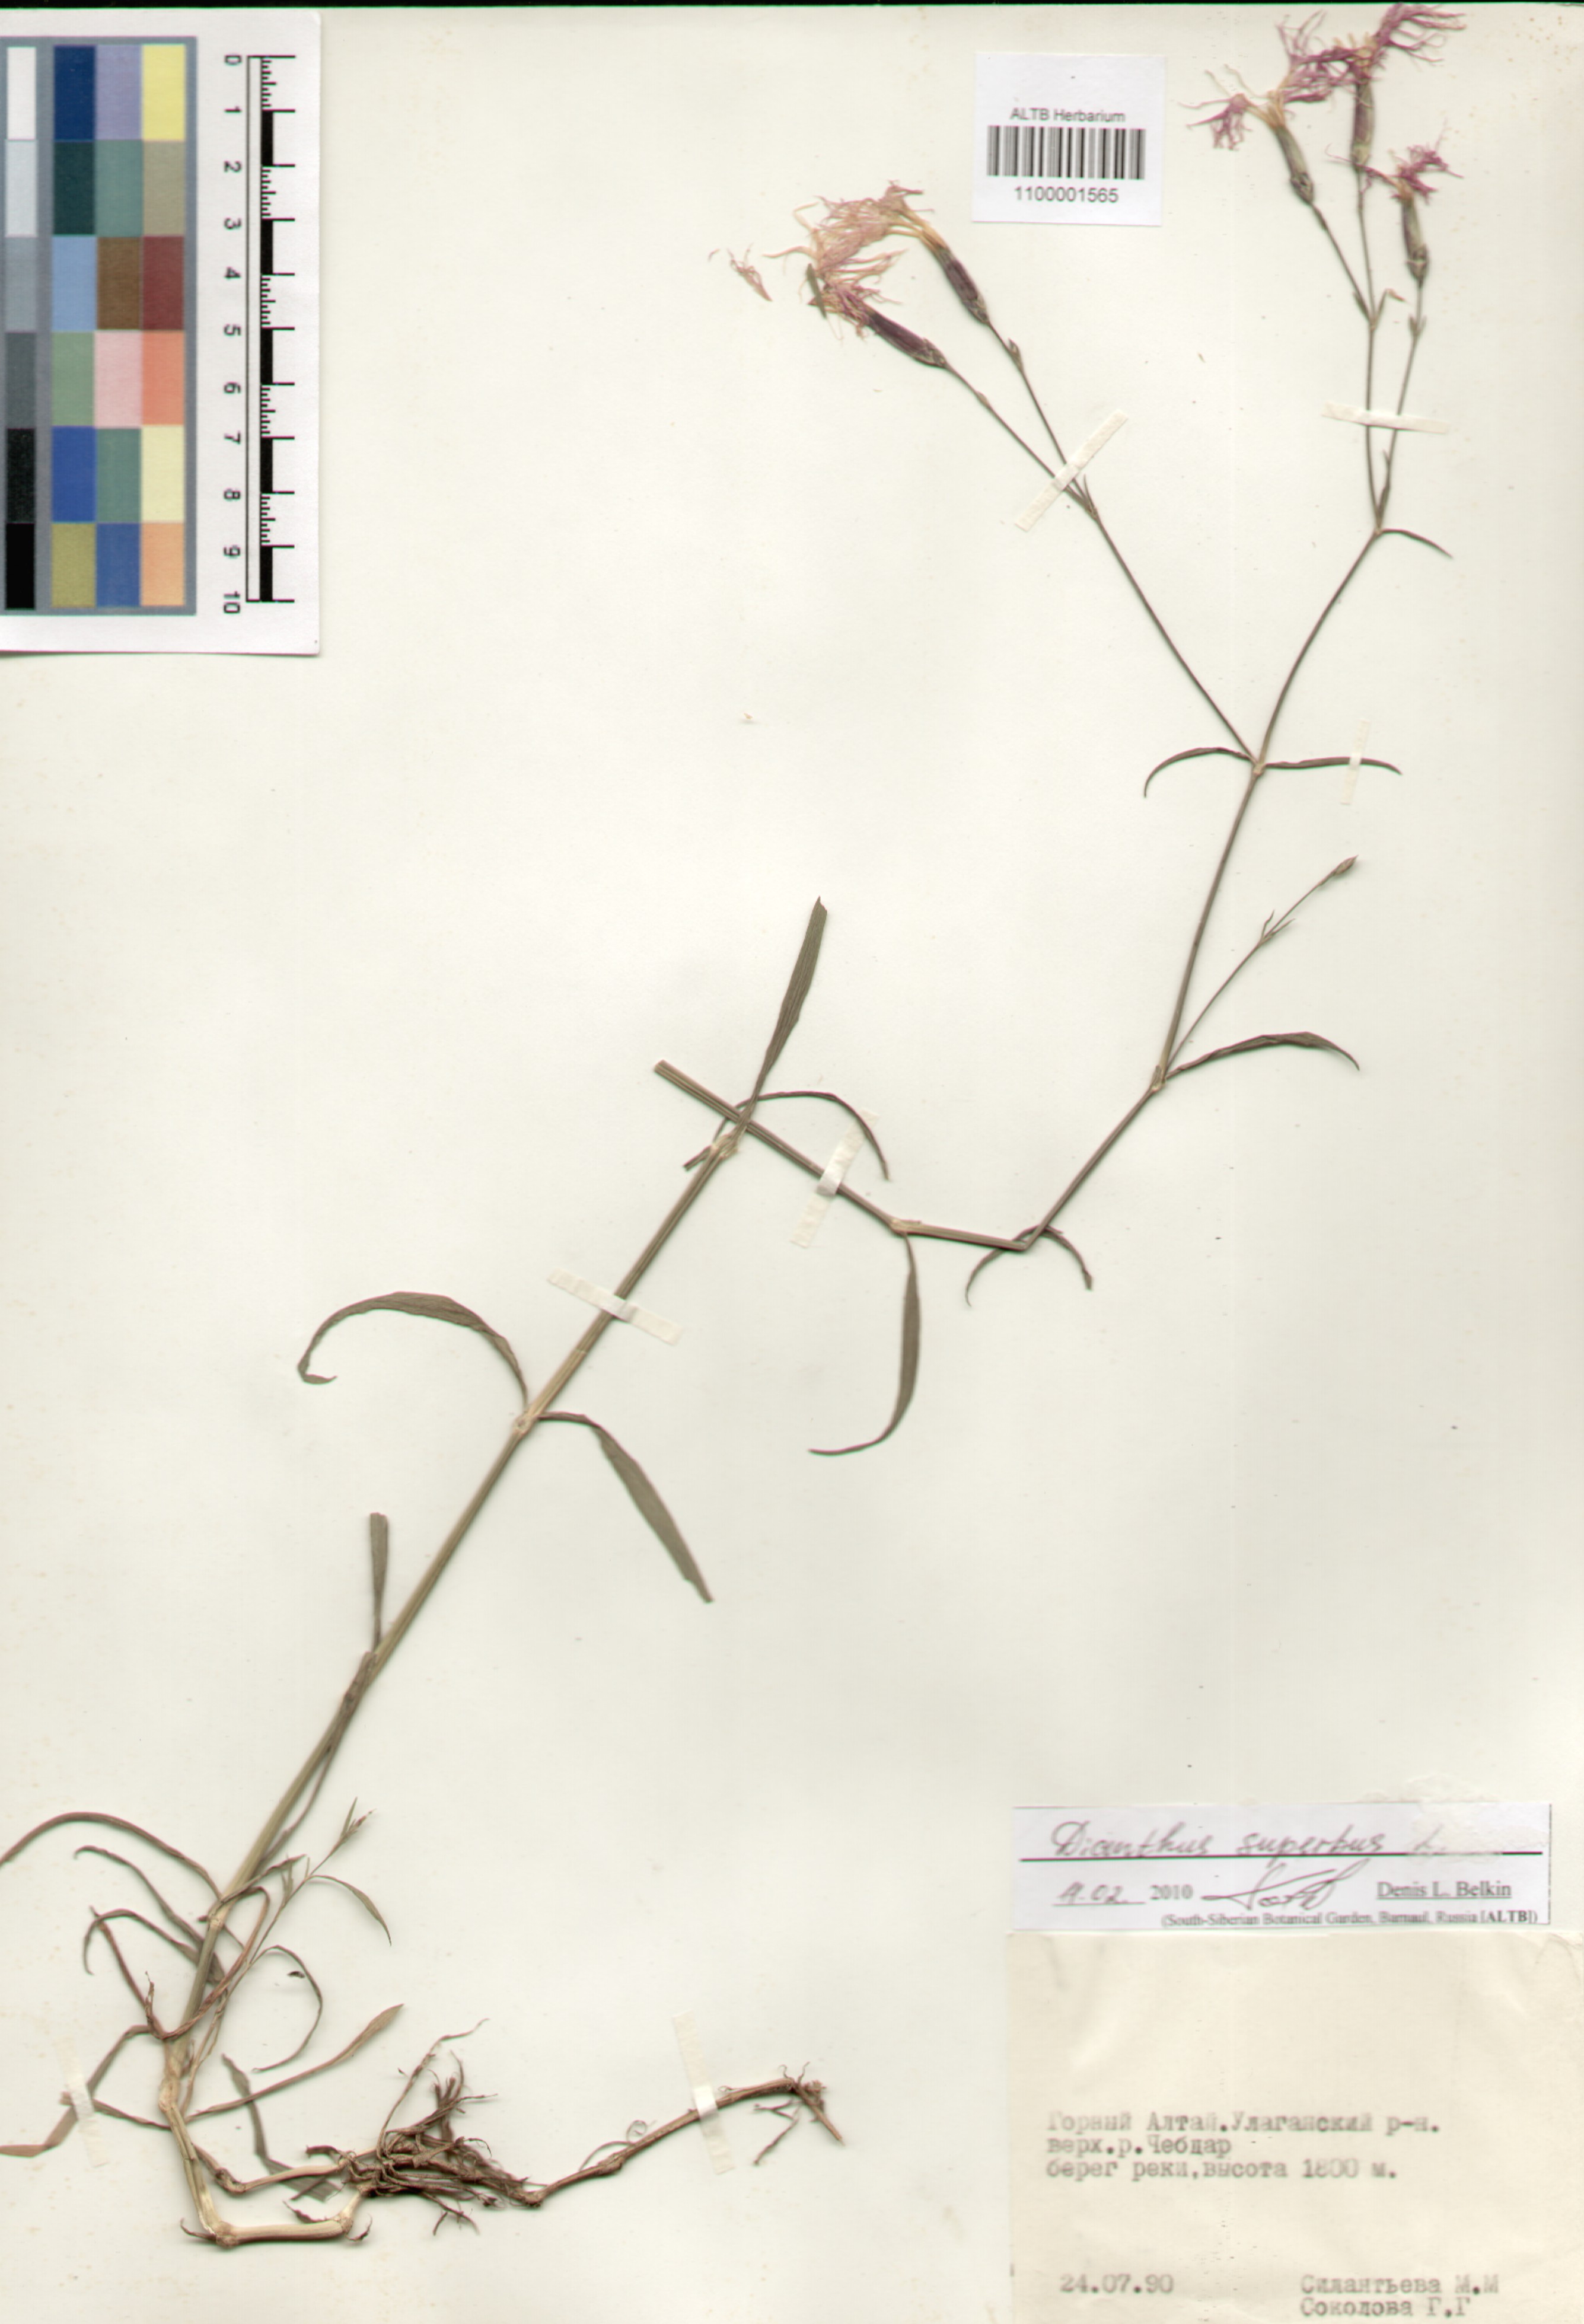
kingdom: Plantae
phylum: Tracheophyta
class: Magnoliopsida
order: Caryophyllales
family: Caryophyllaceae
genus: Dianthus
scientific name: Dianthus superbus
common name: Fringed pink
